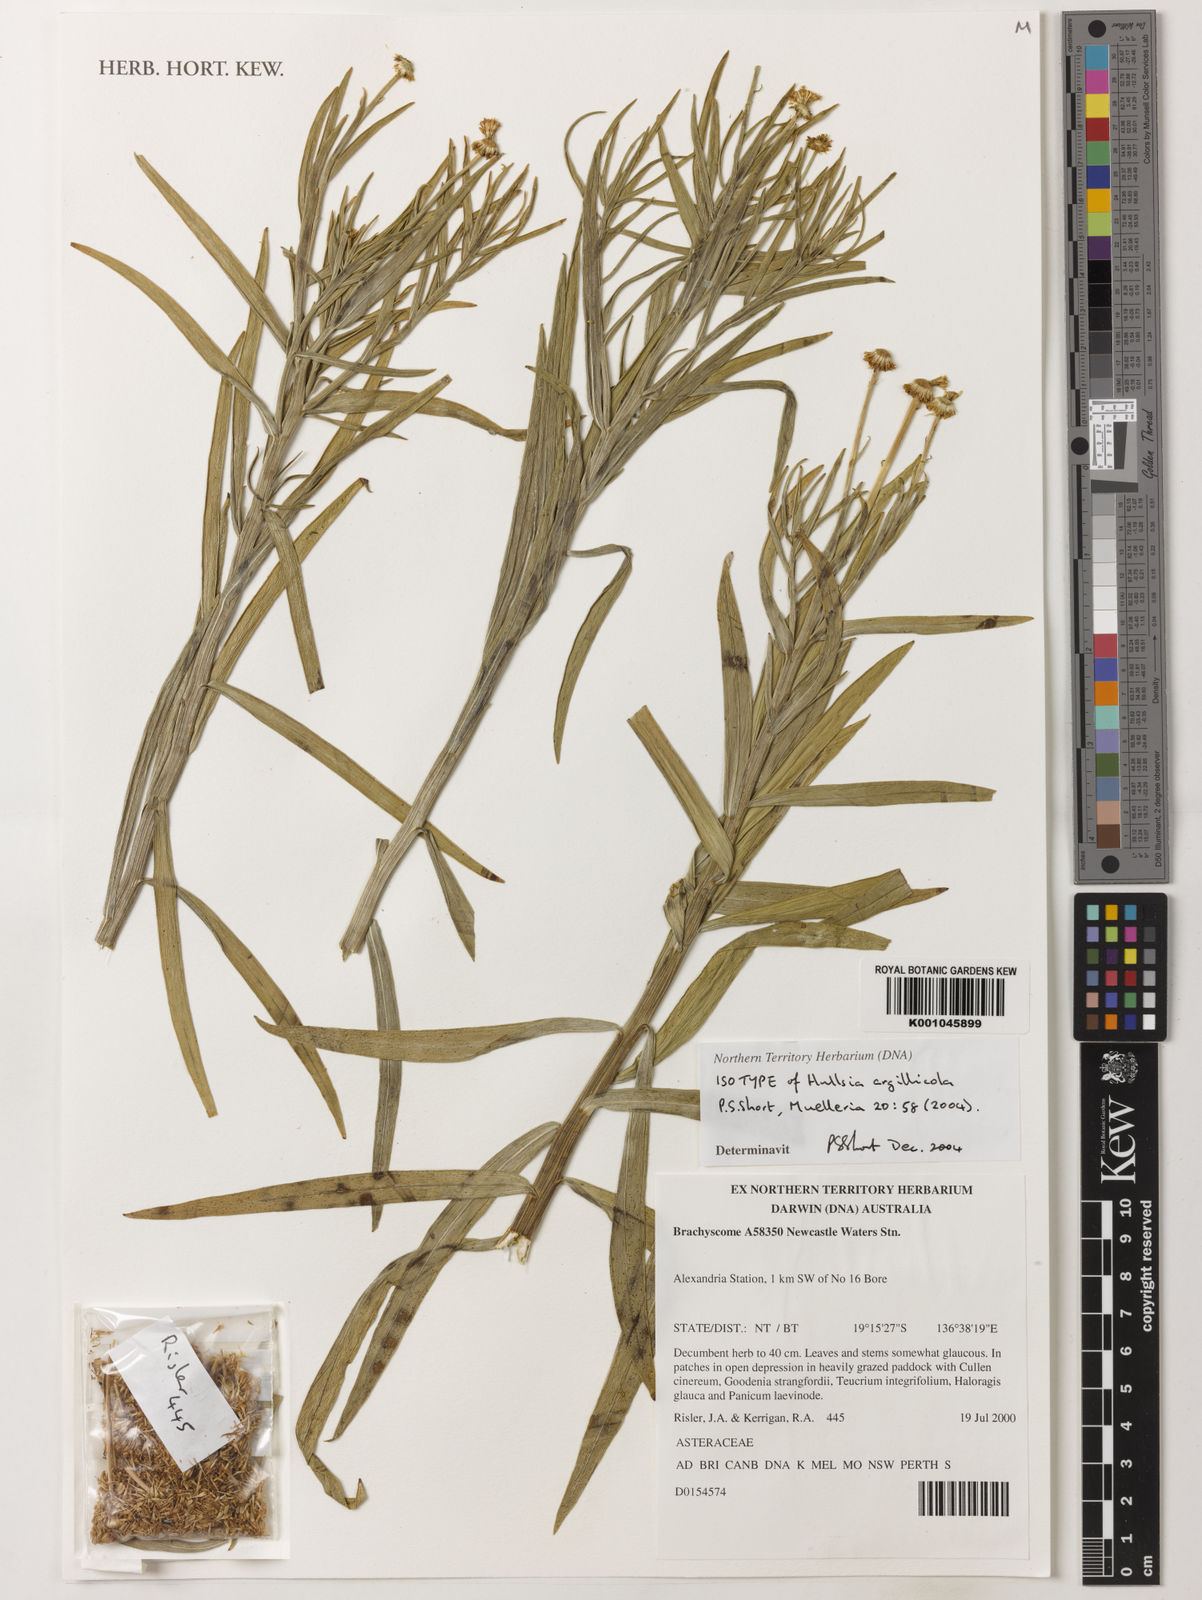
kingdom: Plantae
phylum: Tracheophyta
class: Magnoliopsida
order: Asterales
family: Asteraceae
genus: Hullsia
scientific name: Hullsia argillicola
